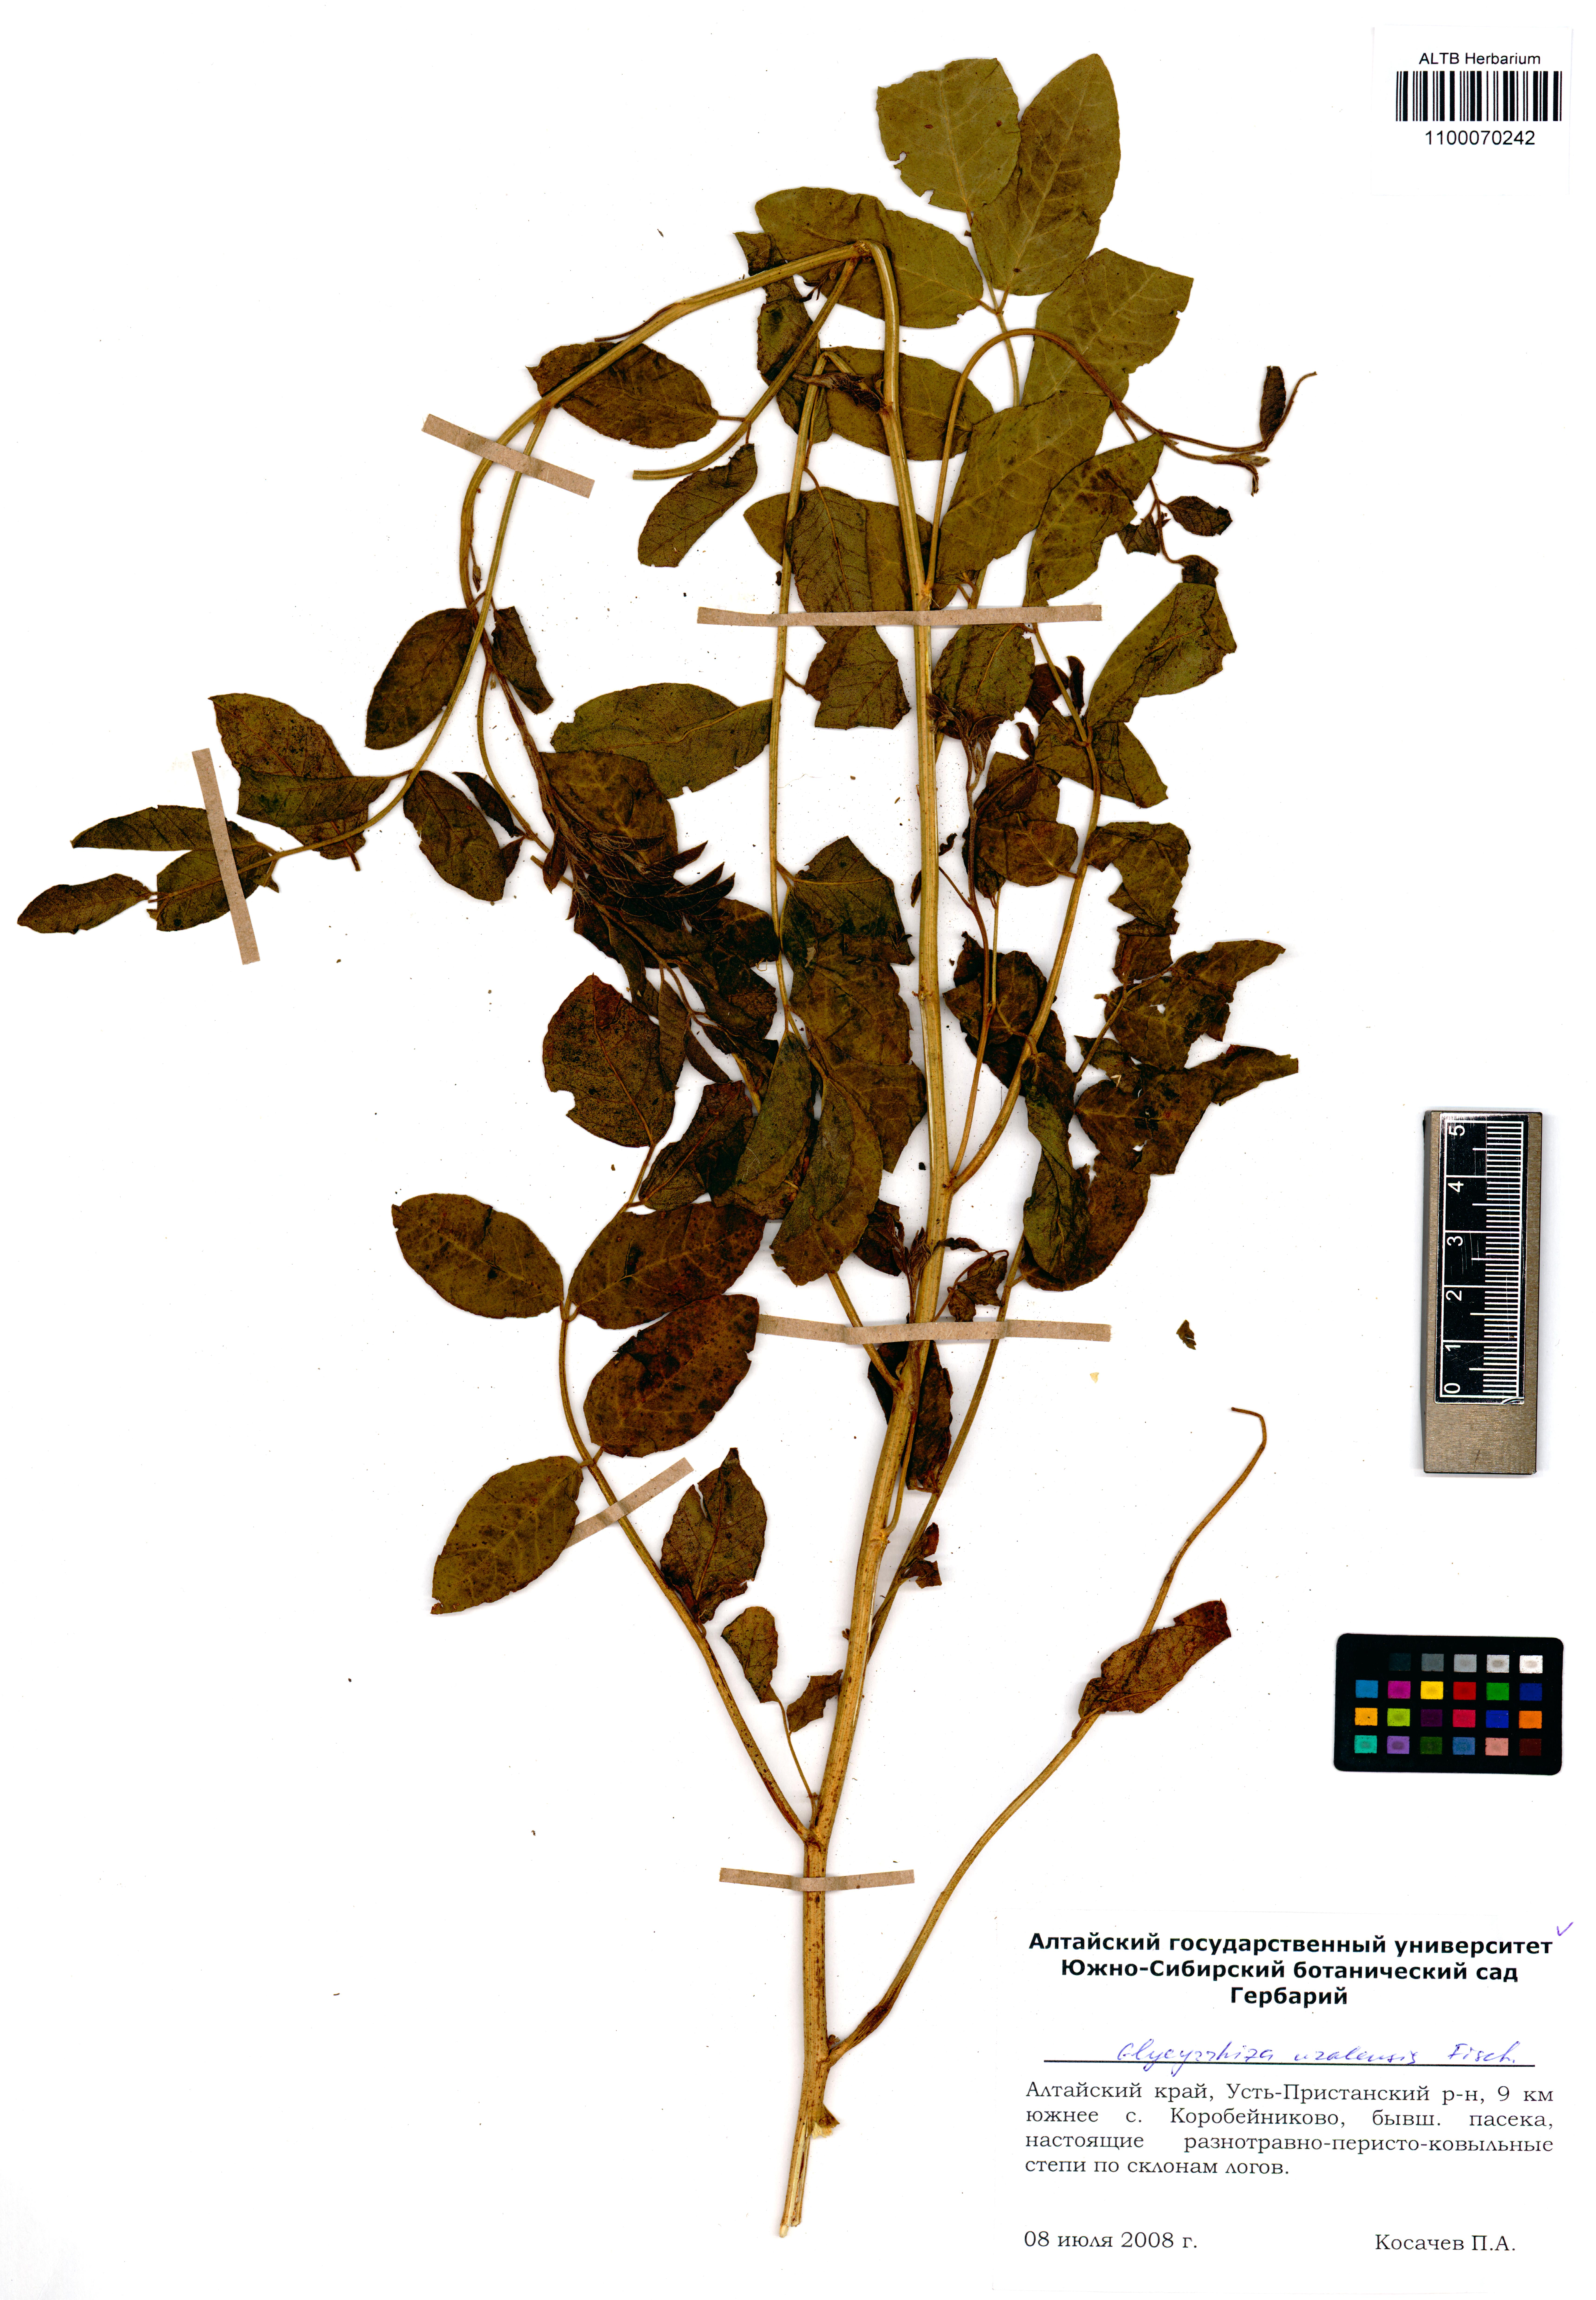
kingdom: Plantae
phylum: Tracheophyta
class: Magnoliopsida
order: Fabales
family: Fabaceae
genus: Glycyrrhiza
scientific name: Glycyrrhiza uralensis
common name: Chinese licorice
